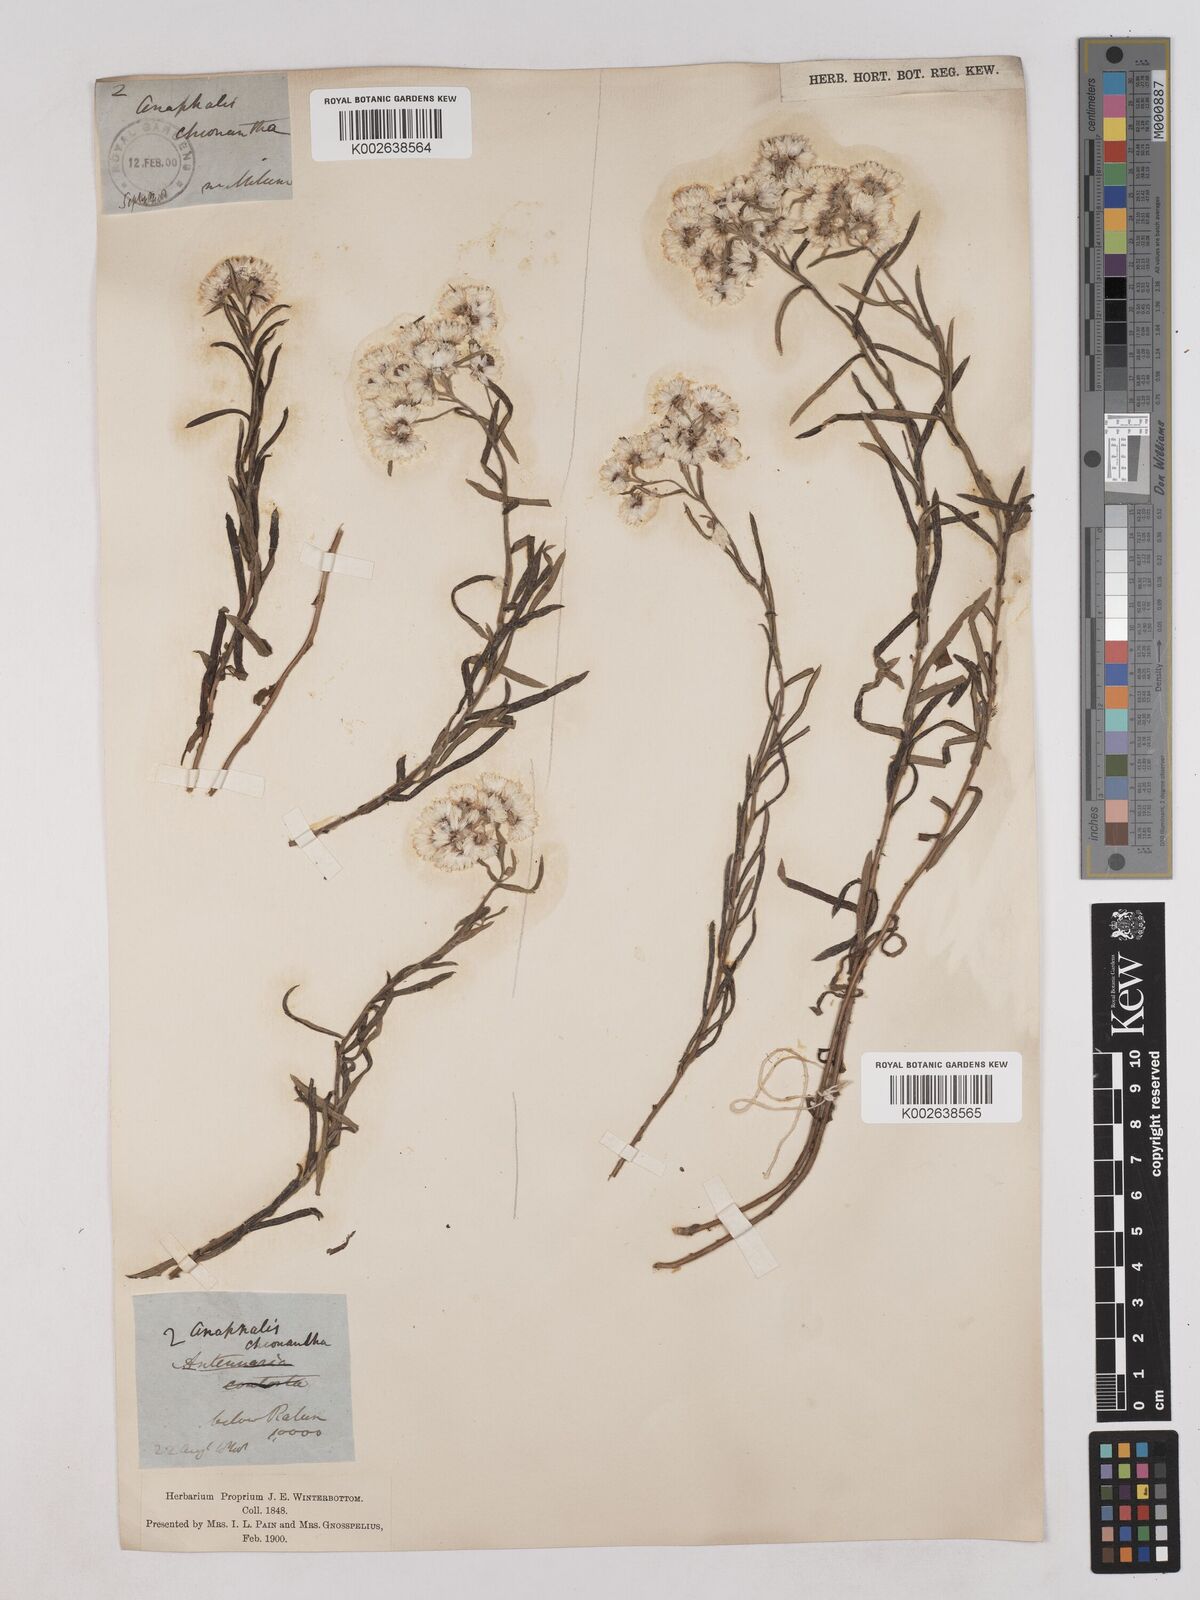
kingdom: Plantae
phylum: Tracheophyta
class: Magnoliopsida
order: Asterales
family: Asteraceae
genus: Anaphalis
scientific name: Anaphalis royleana
